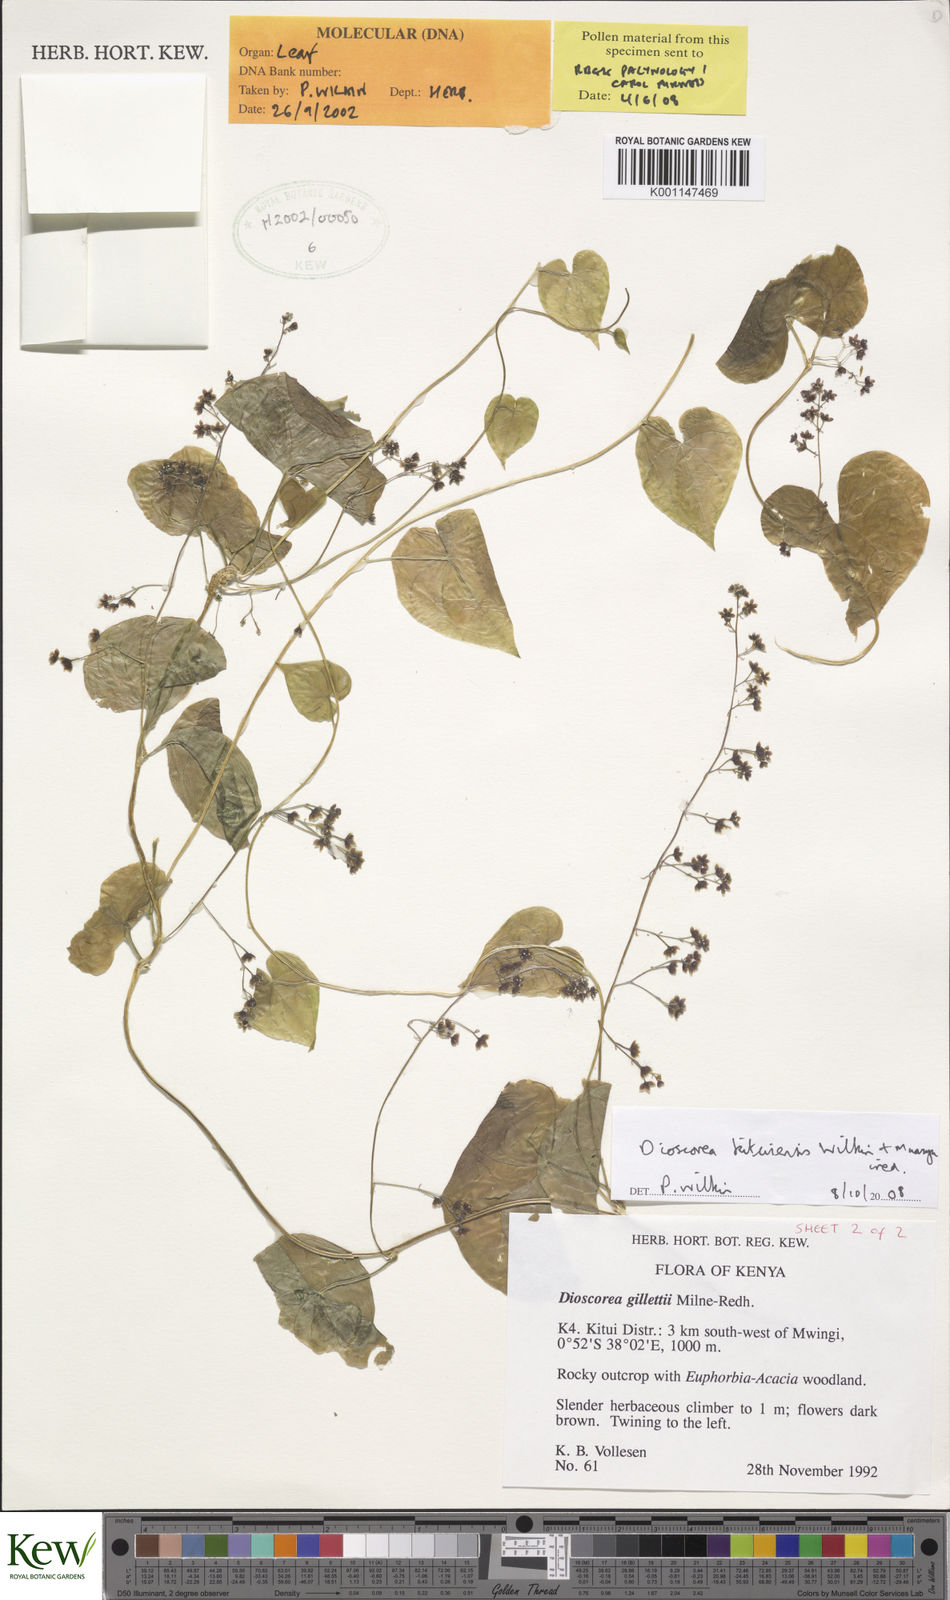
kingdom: Plantae
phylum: Tracheophyta
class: Liliopsida
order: Dioscoreales
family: Dioscoreaceae
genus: Dioscorea
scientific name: Dioscorea kituiensis
